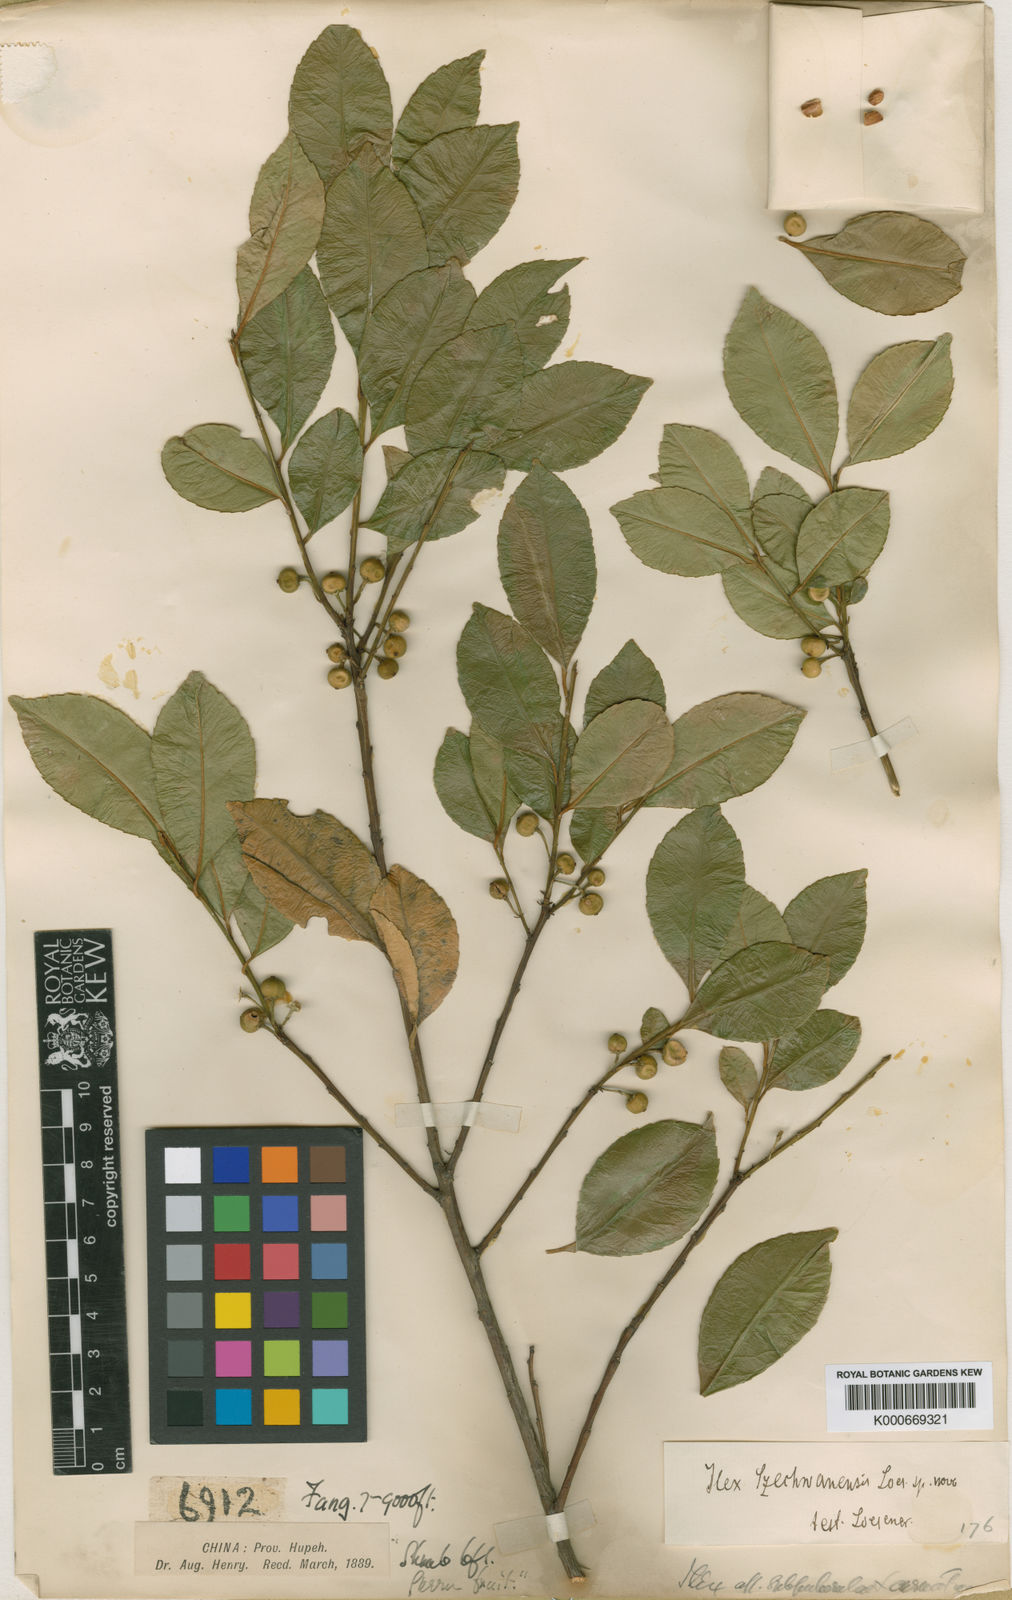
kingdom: Plantae
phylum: Tracheophyta
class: Magnoliopsida
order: Aquifoliales
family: Aquifoliaceae
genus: Ilex
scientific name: Ilex szechwanensis
